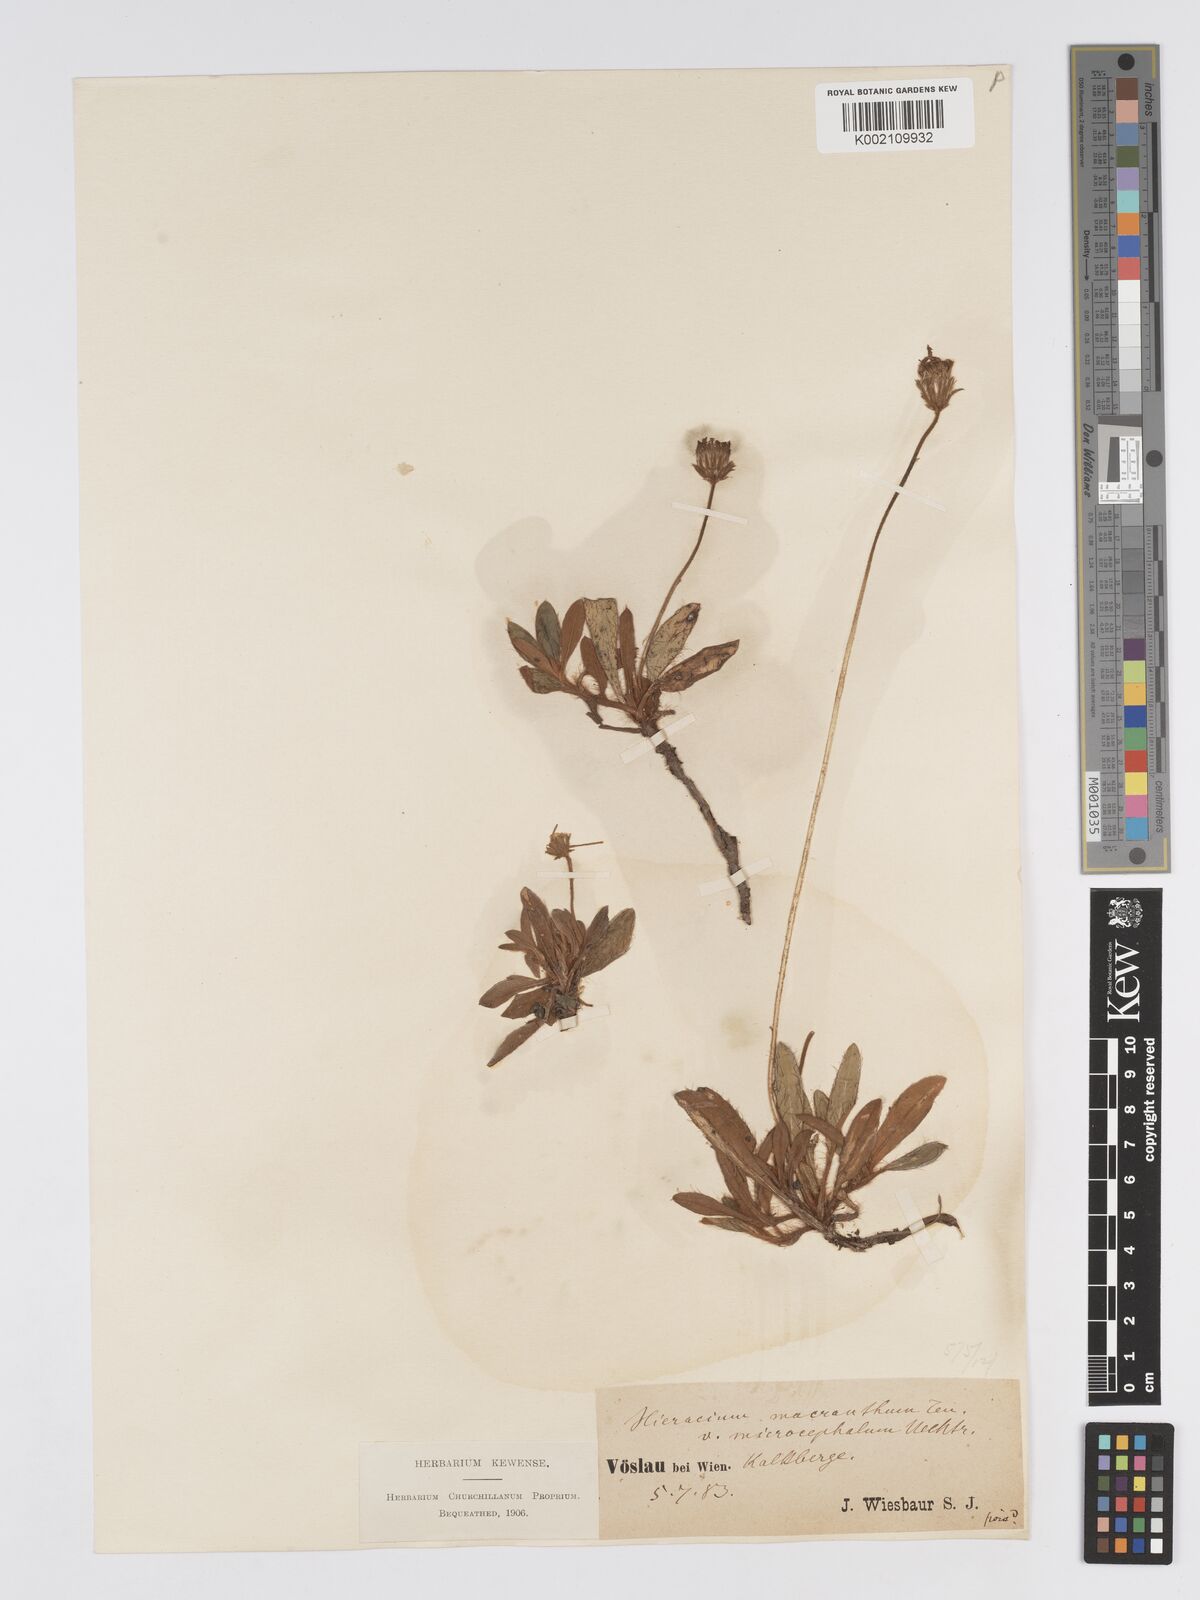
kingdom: Plantae
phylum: Tracheophyta
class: Magnoliopsida
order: Asterales
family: Asteraceae
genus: Pilosella
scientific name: Pilosella hoppeana
